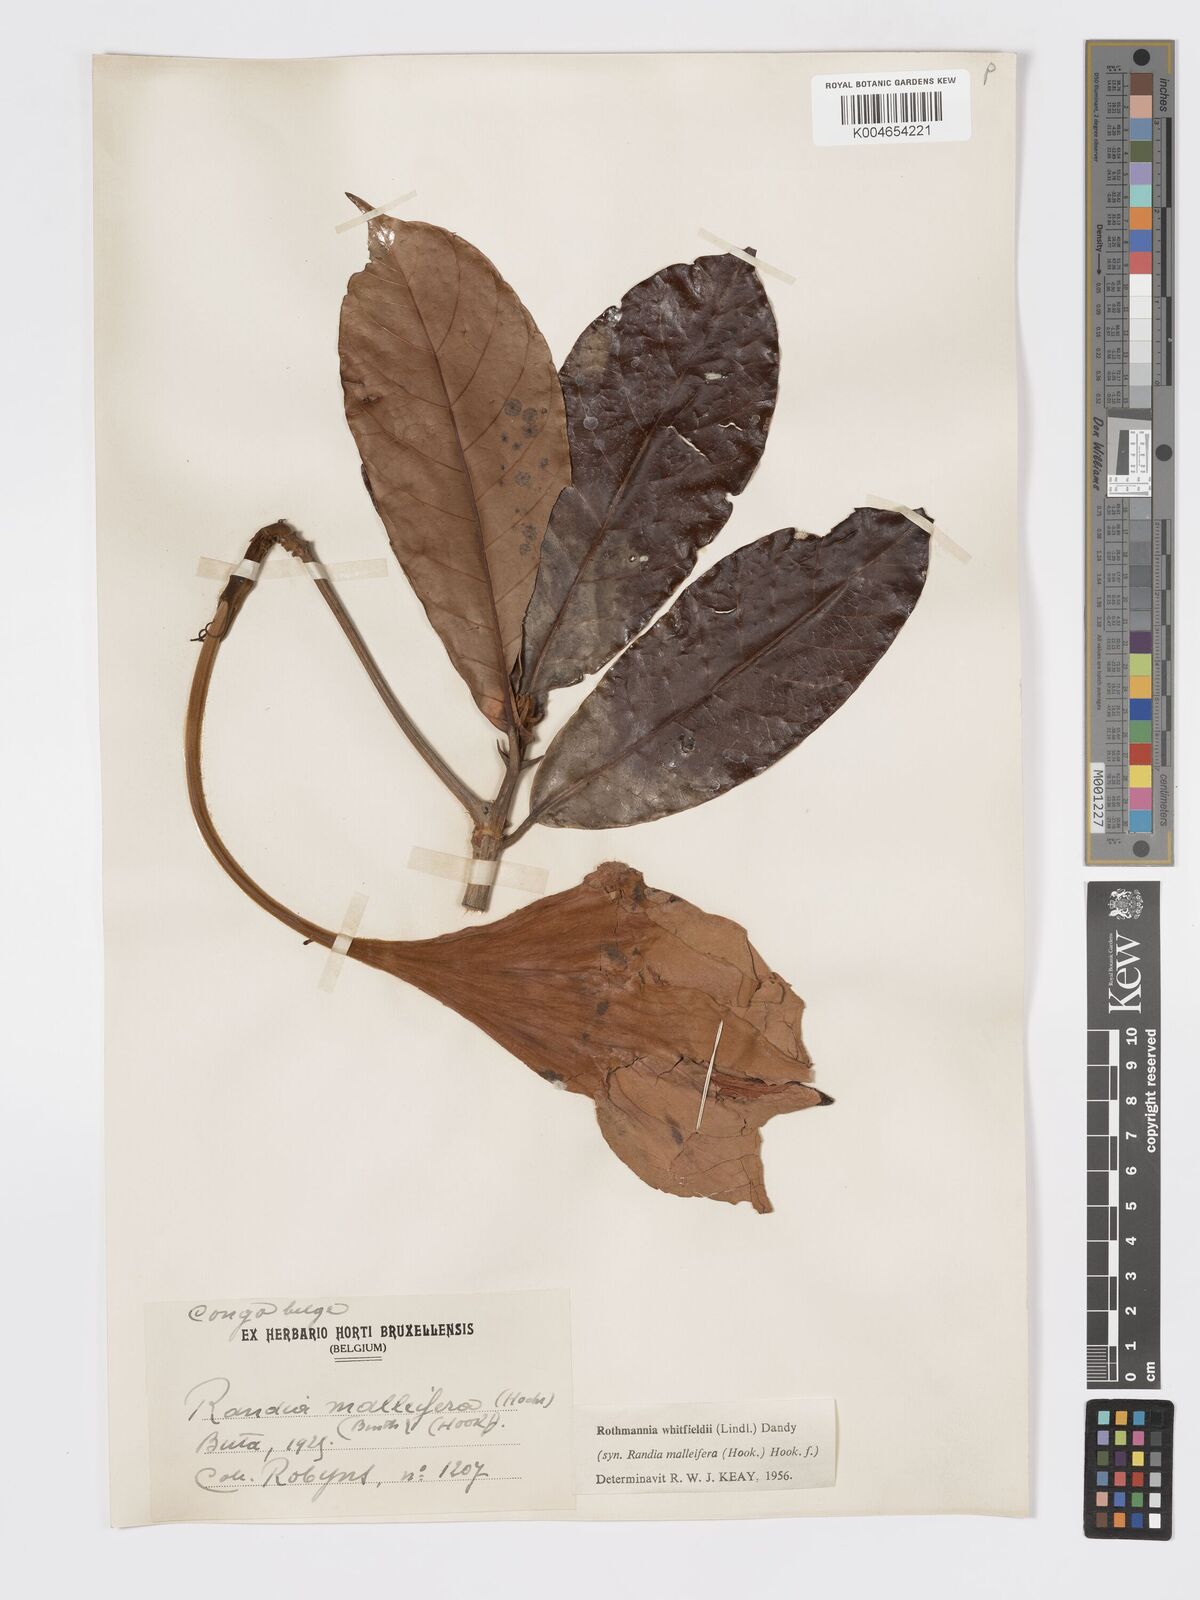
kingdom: Plantae
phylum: Tracheophyta
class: Magnoliopsida
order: Gentianales
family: Rubiaceae
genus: Rothmannia
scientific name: Rothmannia whitfieldii
